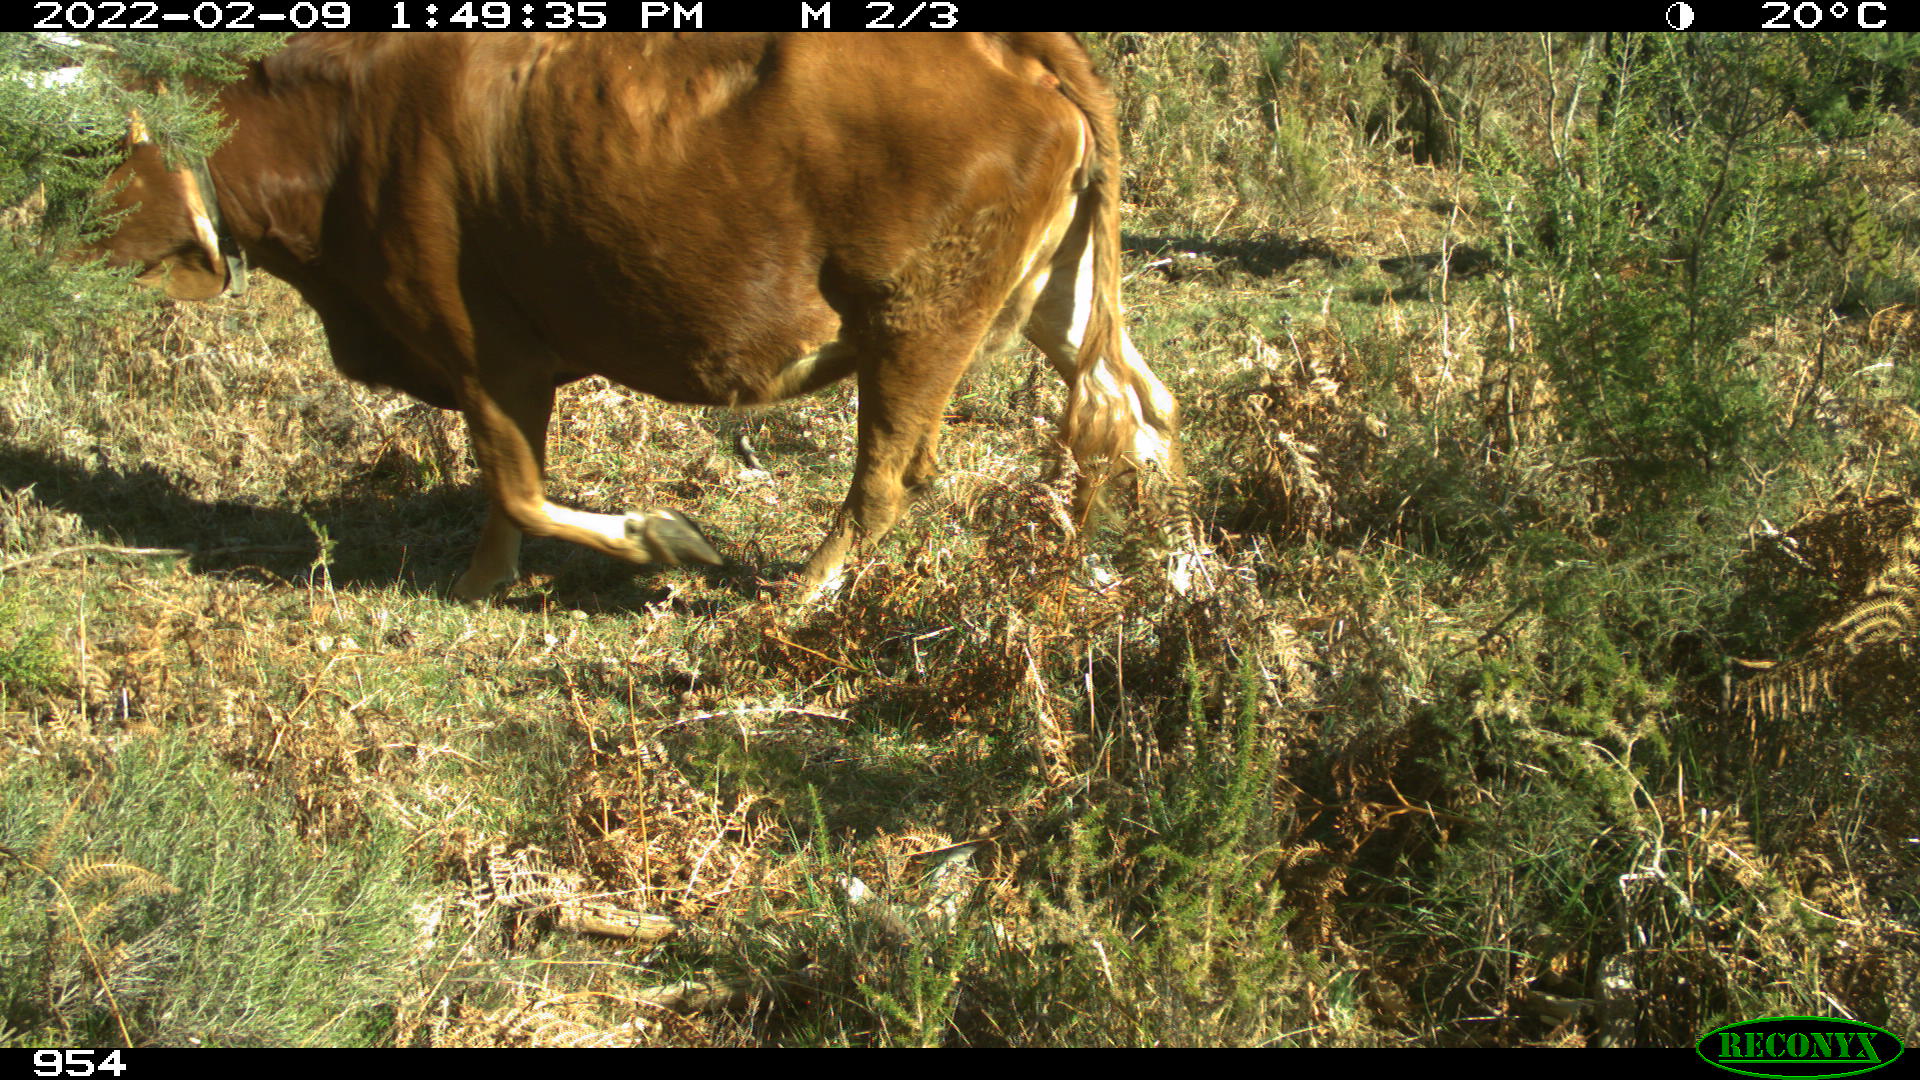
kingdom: Animalia
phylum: Chordata
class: Mammalia
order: Carnivora
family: Canidae
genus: Canis
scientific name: Canis lupus
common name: Gray wolf
